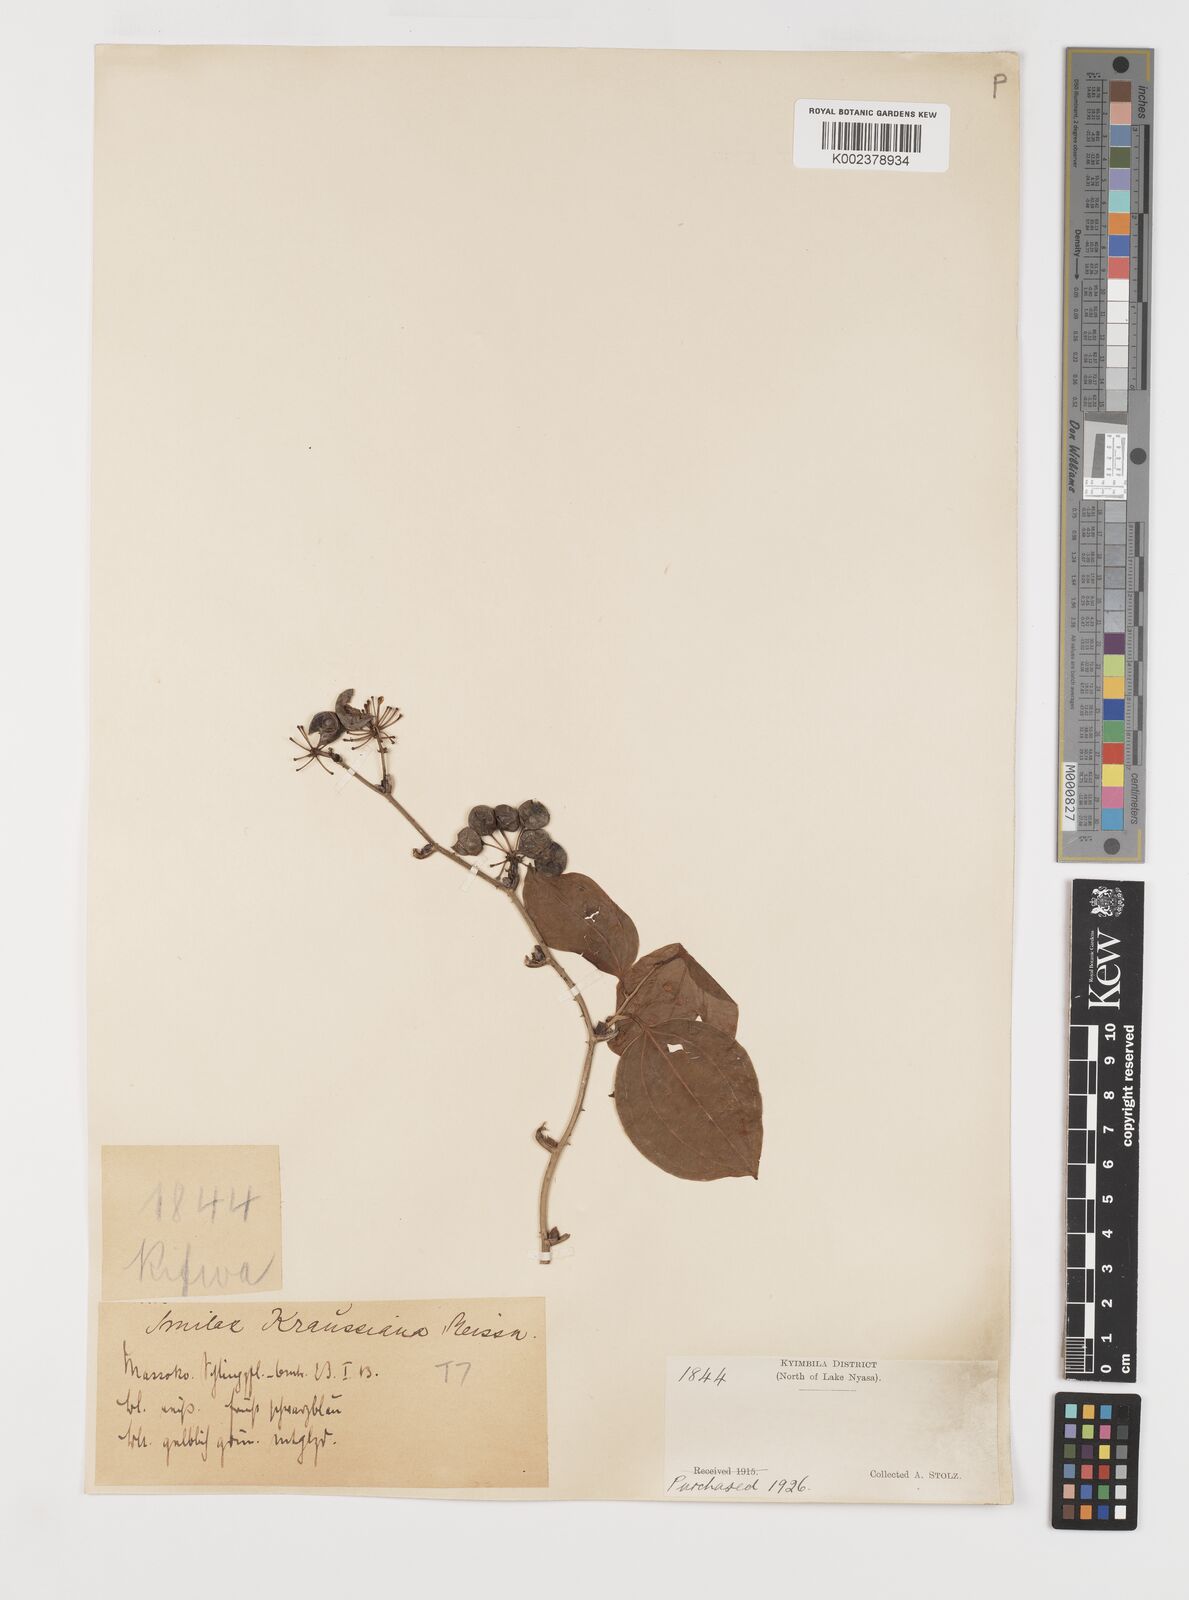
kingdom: Plantae
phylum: Tracheophyta
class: Liliopsida
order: Liliales
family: Smilacaceae
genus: Smilax
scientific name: Smilax anceps
